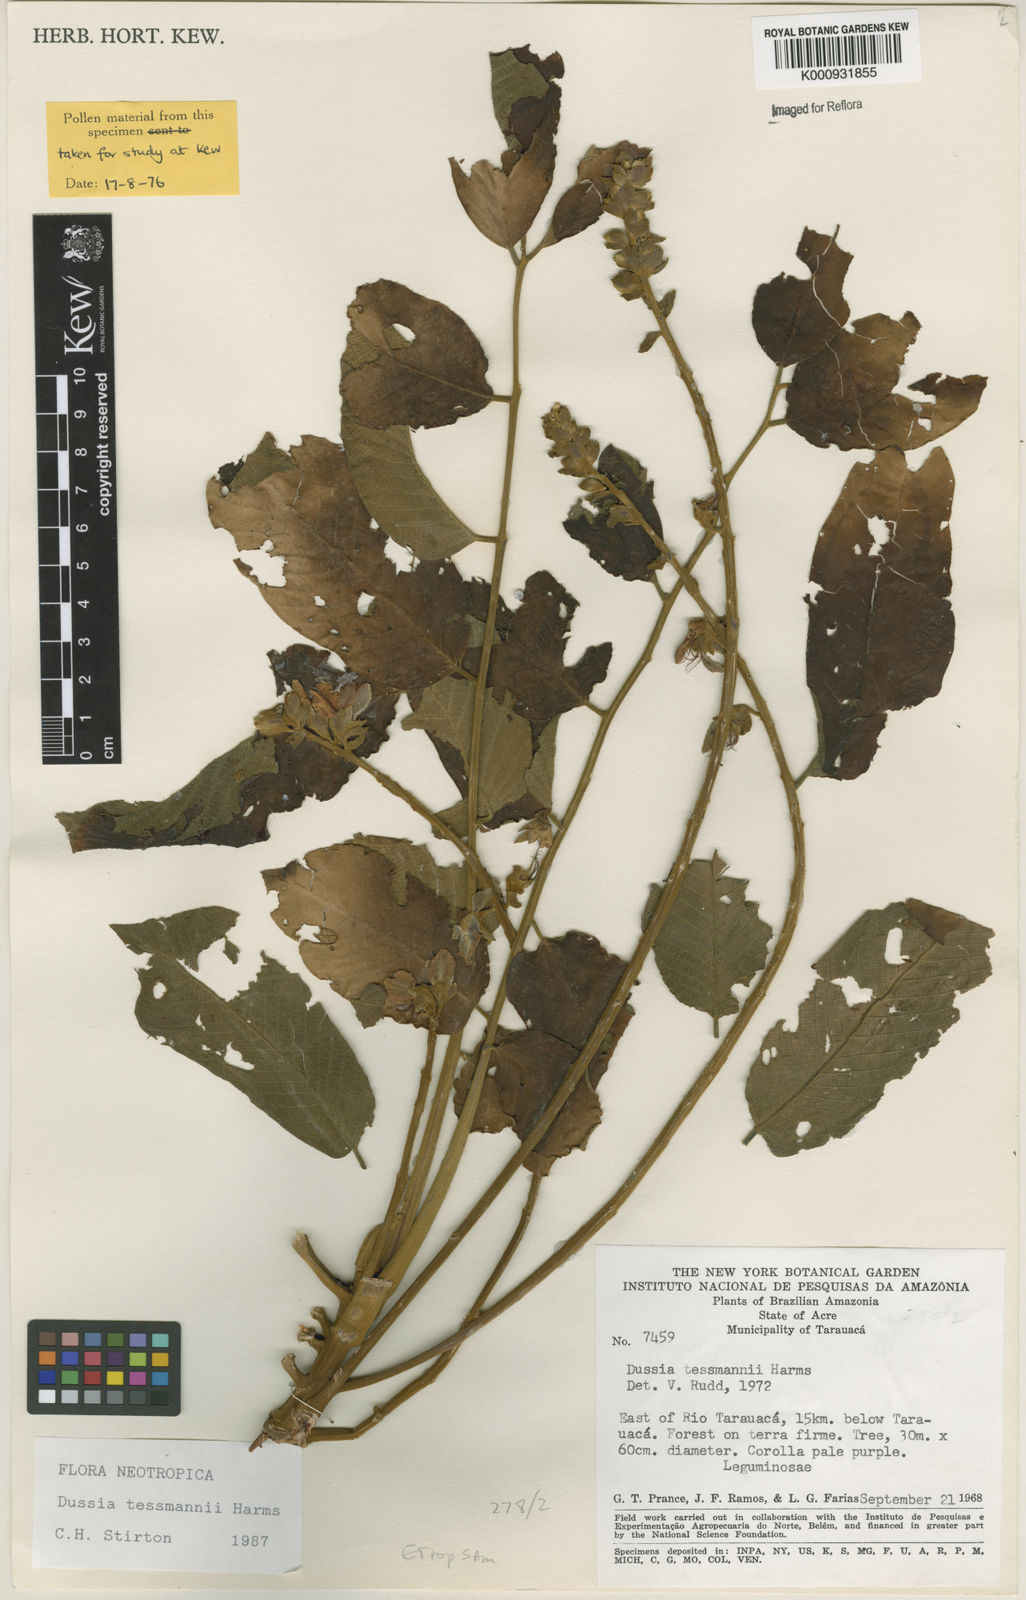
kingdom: Plantae
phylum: Tracheophyta
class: Magnoliopsida
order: Fabales
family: Fabaceae
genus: Dussia
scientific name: Dussia tessmannii
